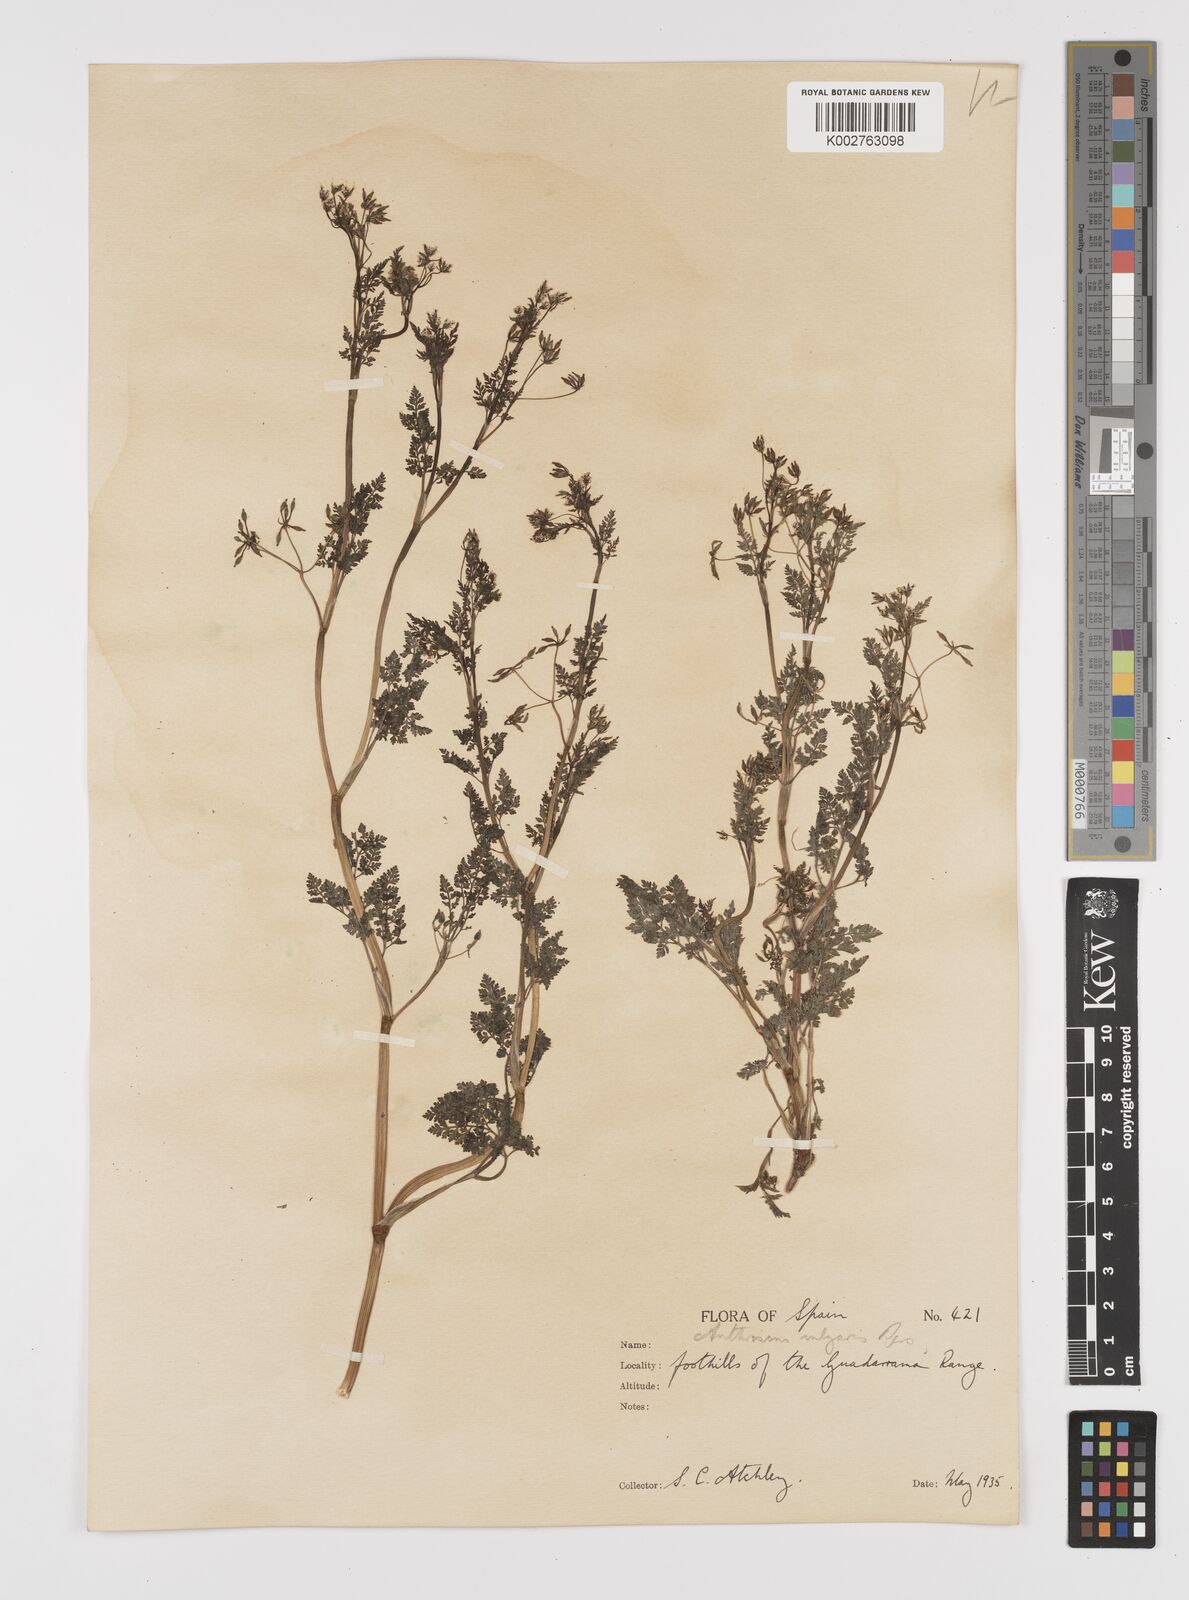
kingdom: Plantae
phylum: Tracheophyta
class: Magnoliopsida
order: Apiales
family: Apiaceae
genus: Anthriscus
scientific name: Anthriscus caucalis
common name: Bur chervil
